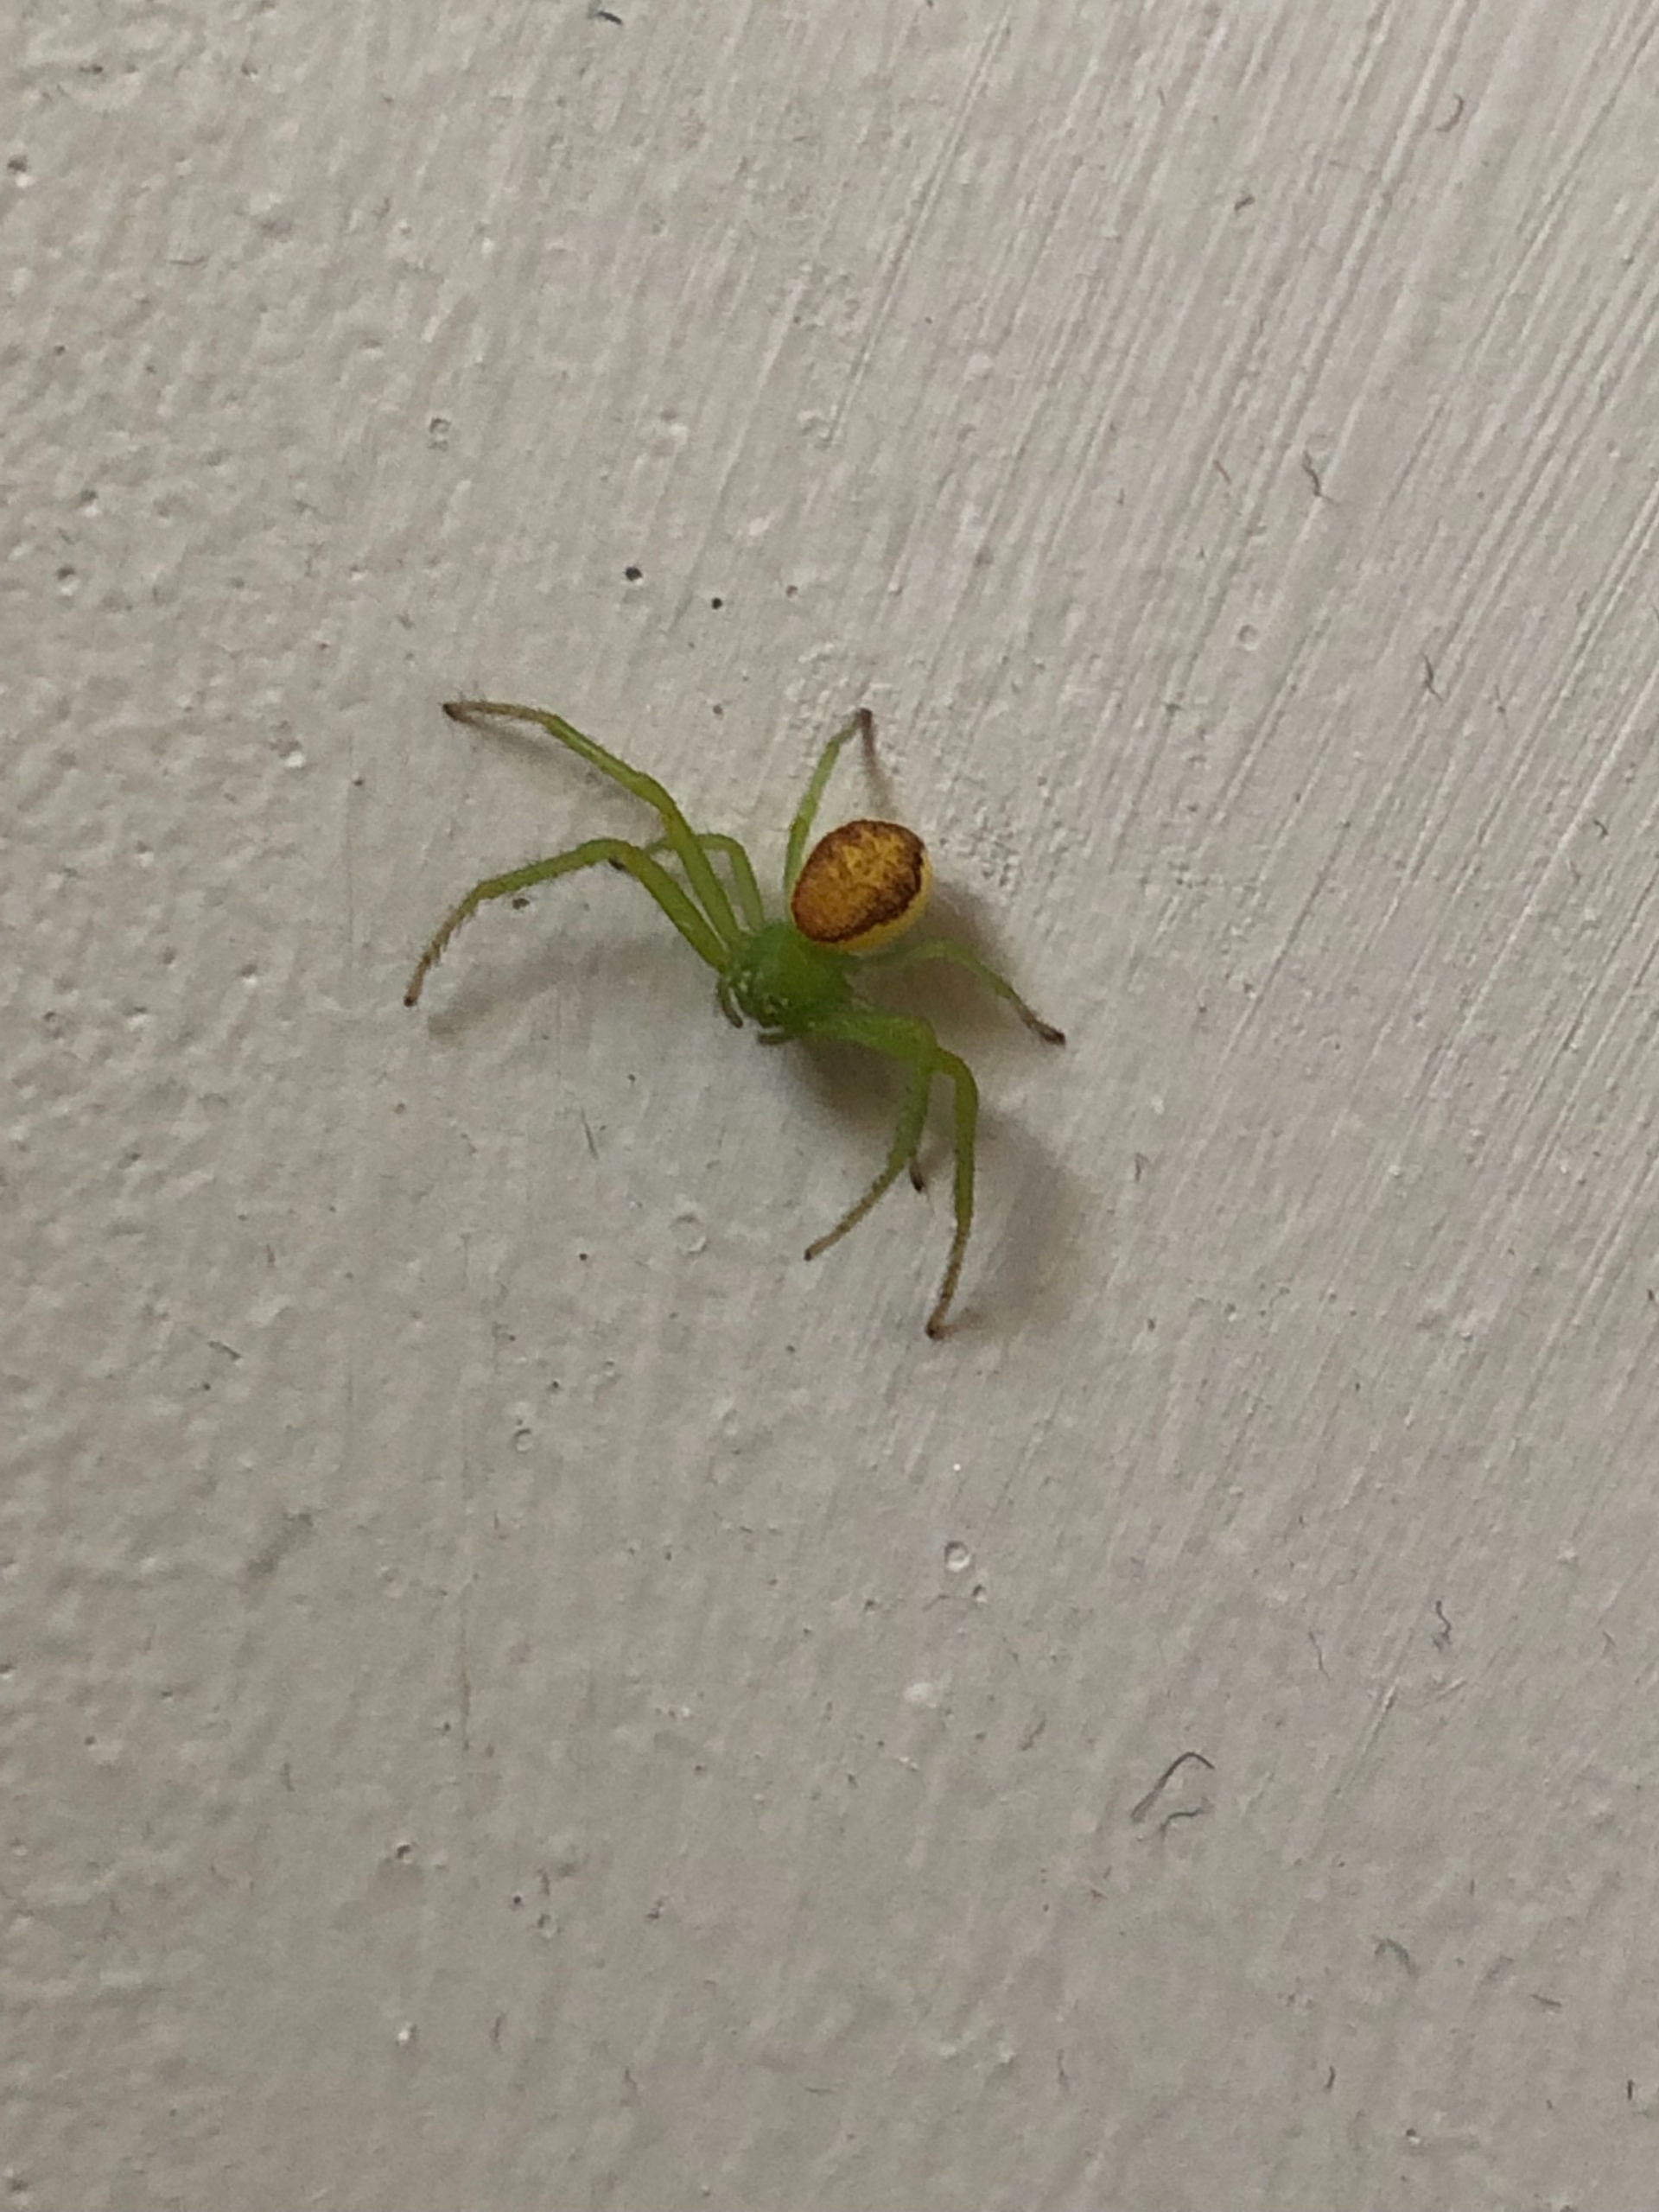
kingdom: Animalia
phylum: Arthropoda
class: Arachnida
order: Araneae
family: Thomisidae
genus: Diaea
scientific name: Diaea dorsata
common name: Grøn krabbeedderkop
